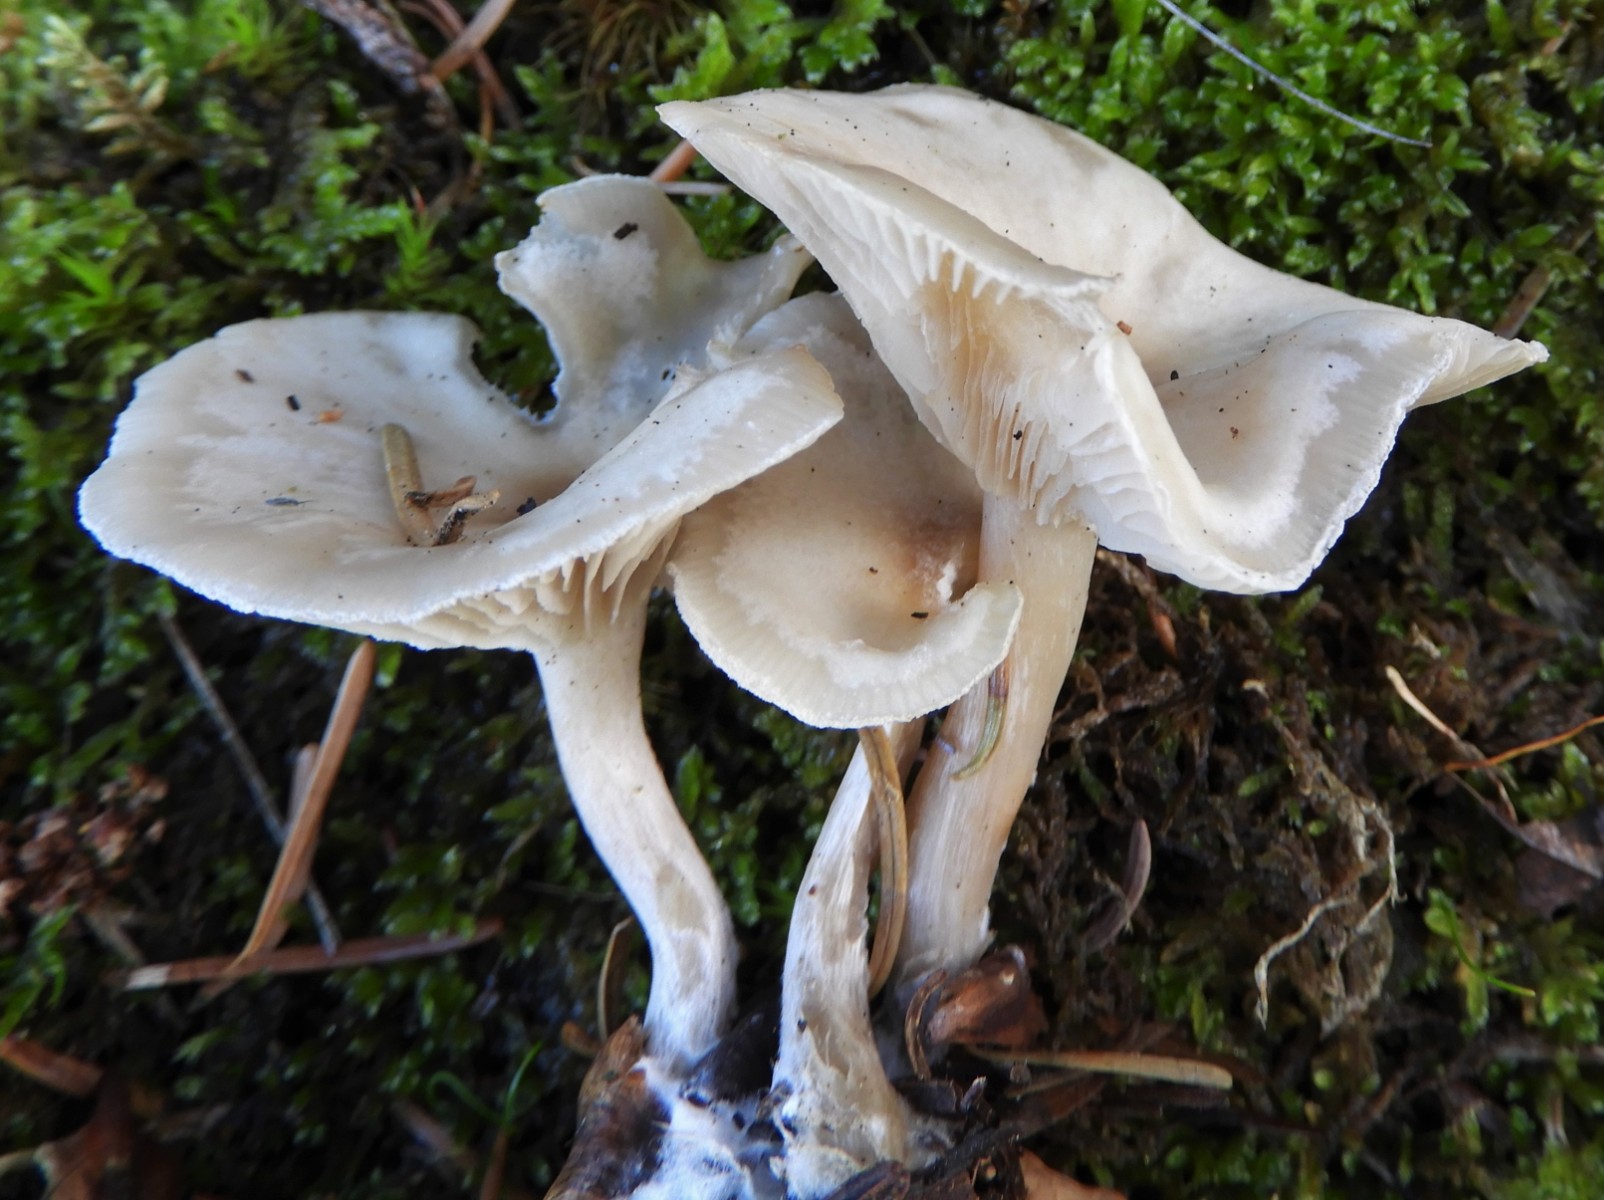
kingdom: Fungi
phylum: Basidiomycota
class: Agaricomycetes
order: Agaricales
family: Tricholomataceae
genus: Clitocybe
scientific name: Clitocybe metachroa
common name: grå tragthat
